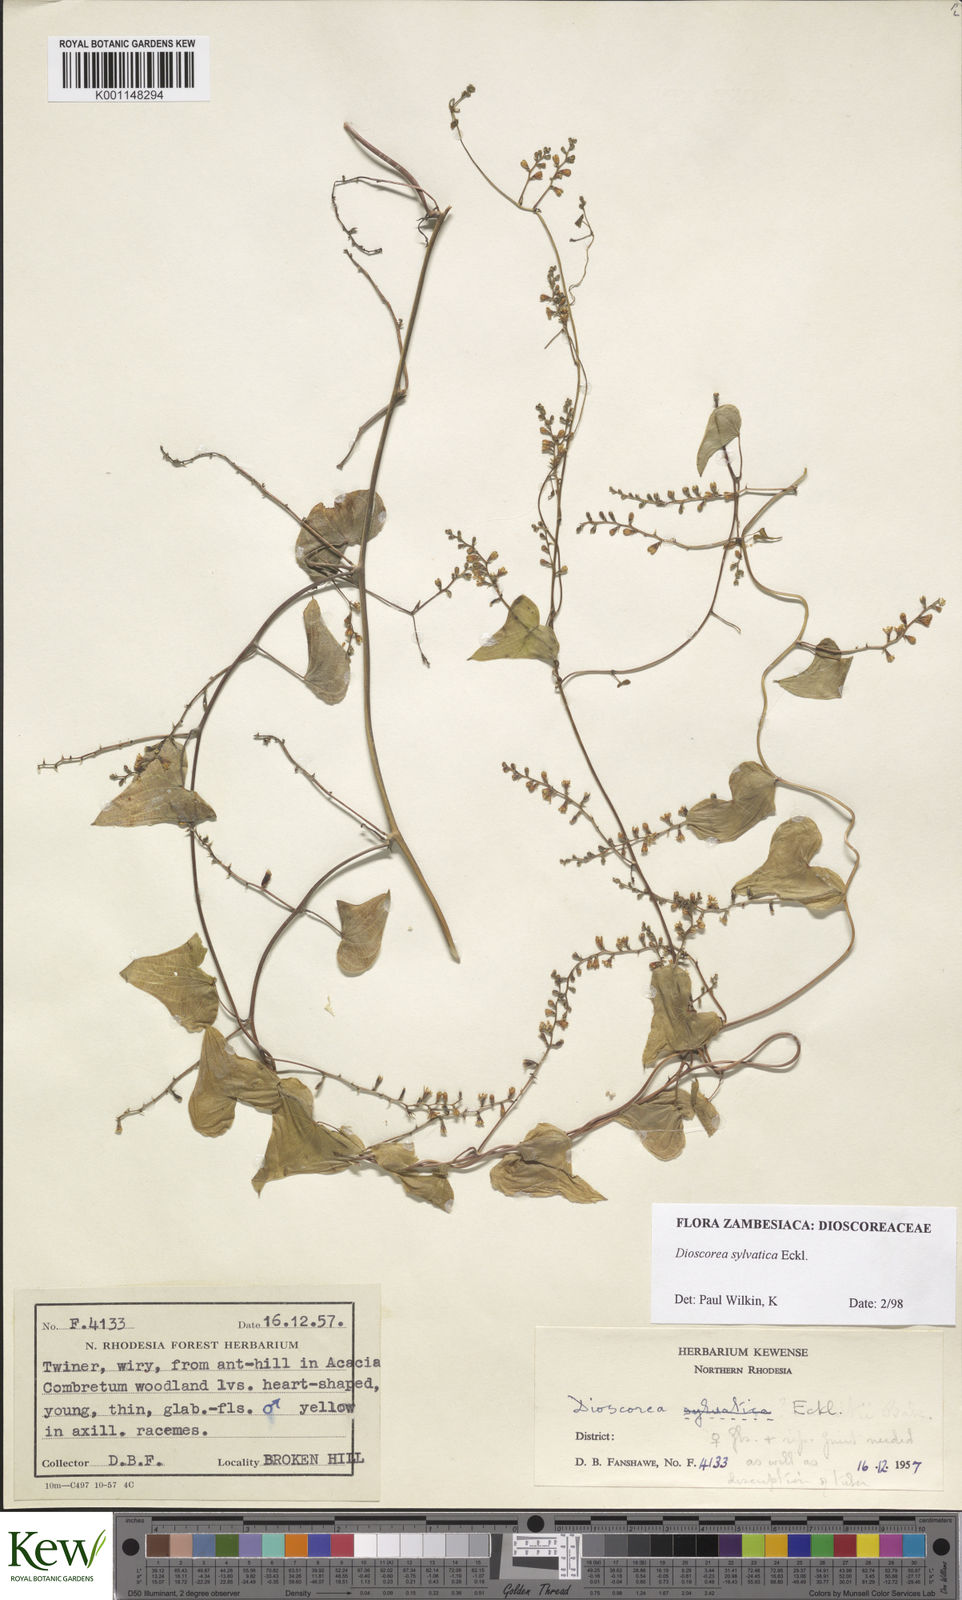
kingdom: Plantae
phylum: Tracheophyta
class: Liliopsida
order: Dioscoreales
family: Dioscoreaceae
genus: Dioscorea
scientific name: Dioscorea sylvatica
